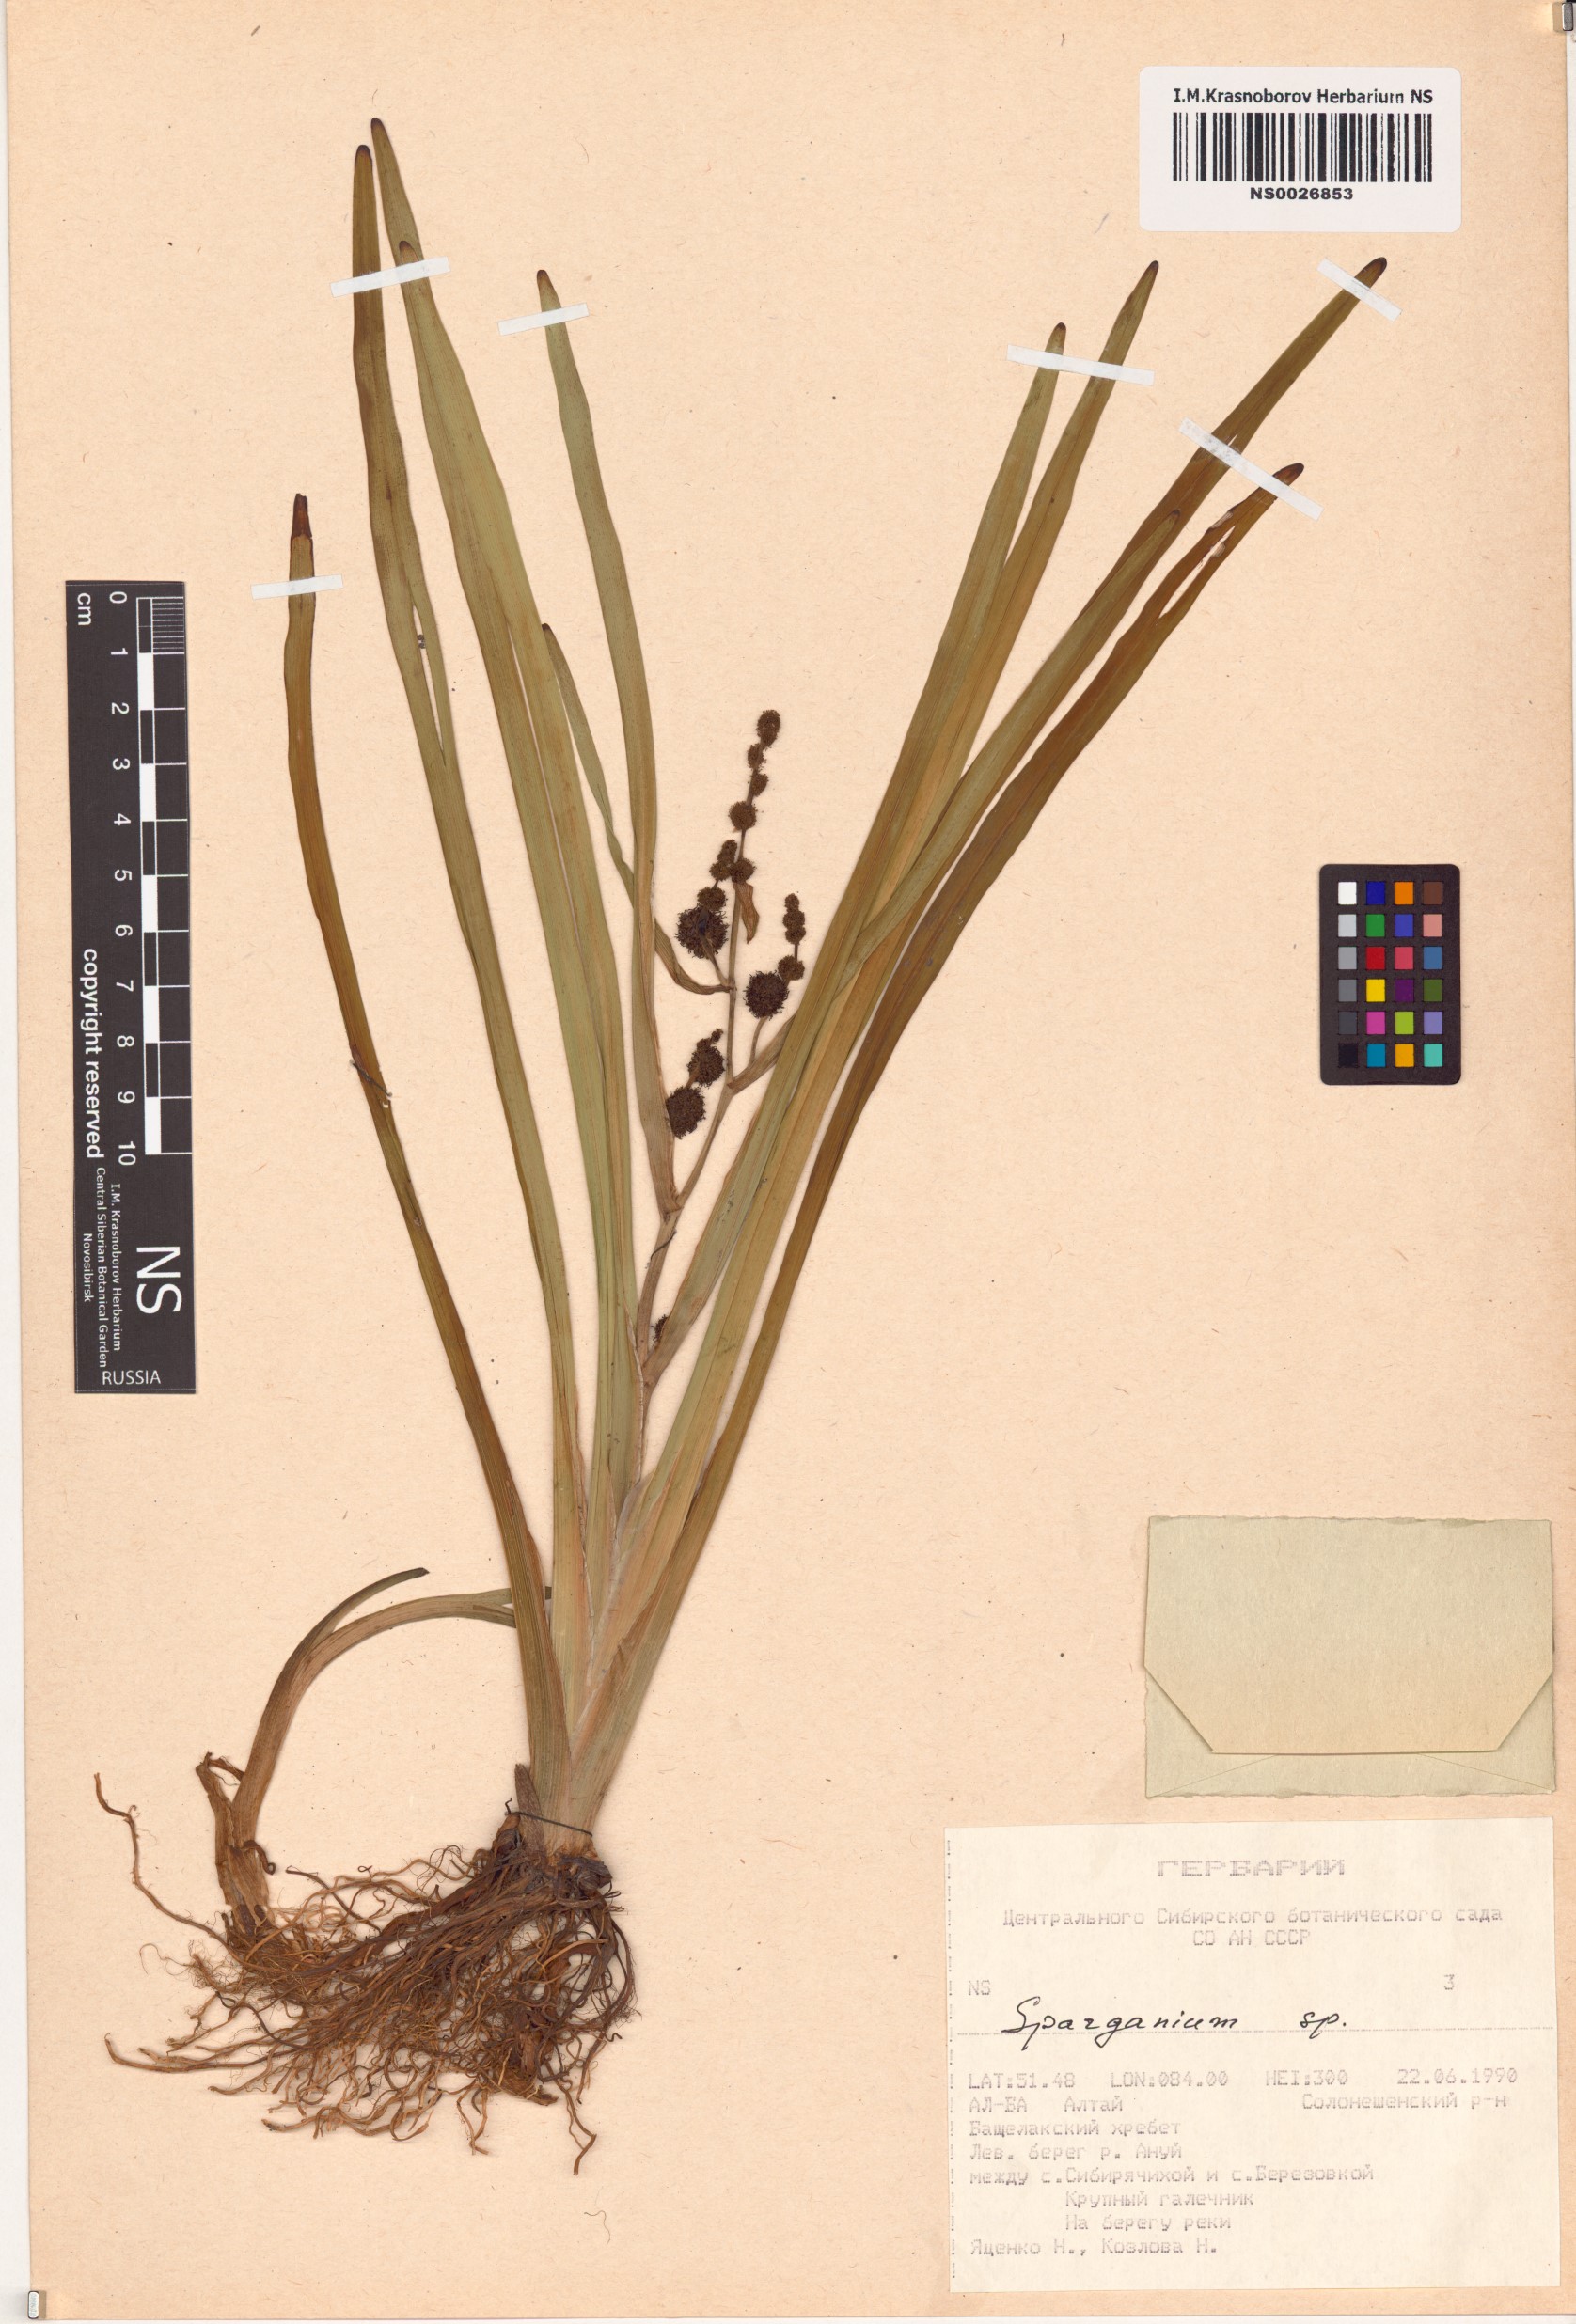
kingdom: Plantae
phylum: Tracheophyta
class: Liliopsida
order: Poales
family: Typhaceae
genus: Sparganium
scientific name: Sparganium
